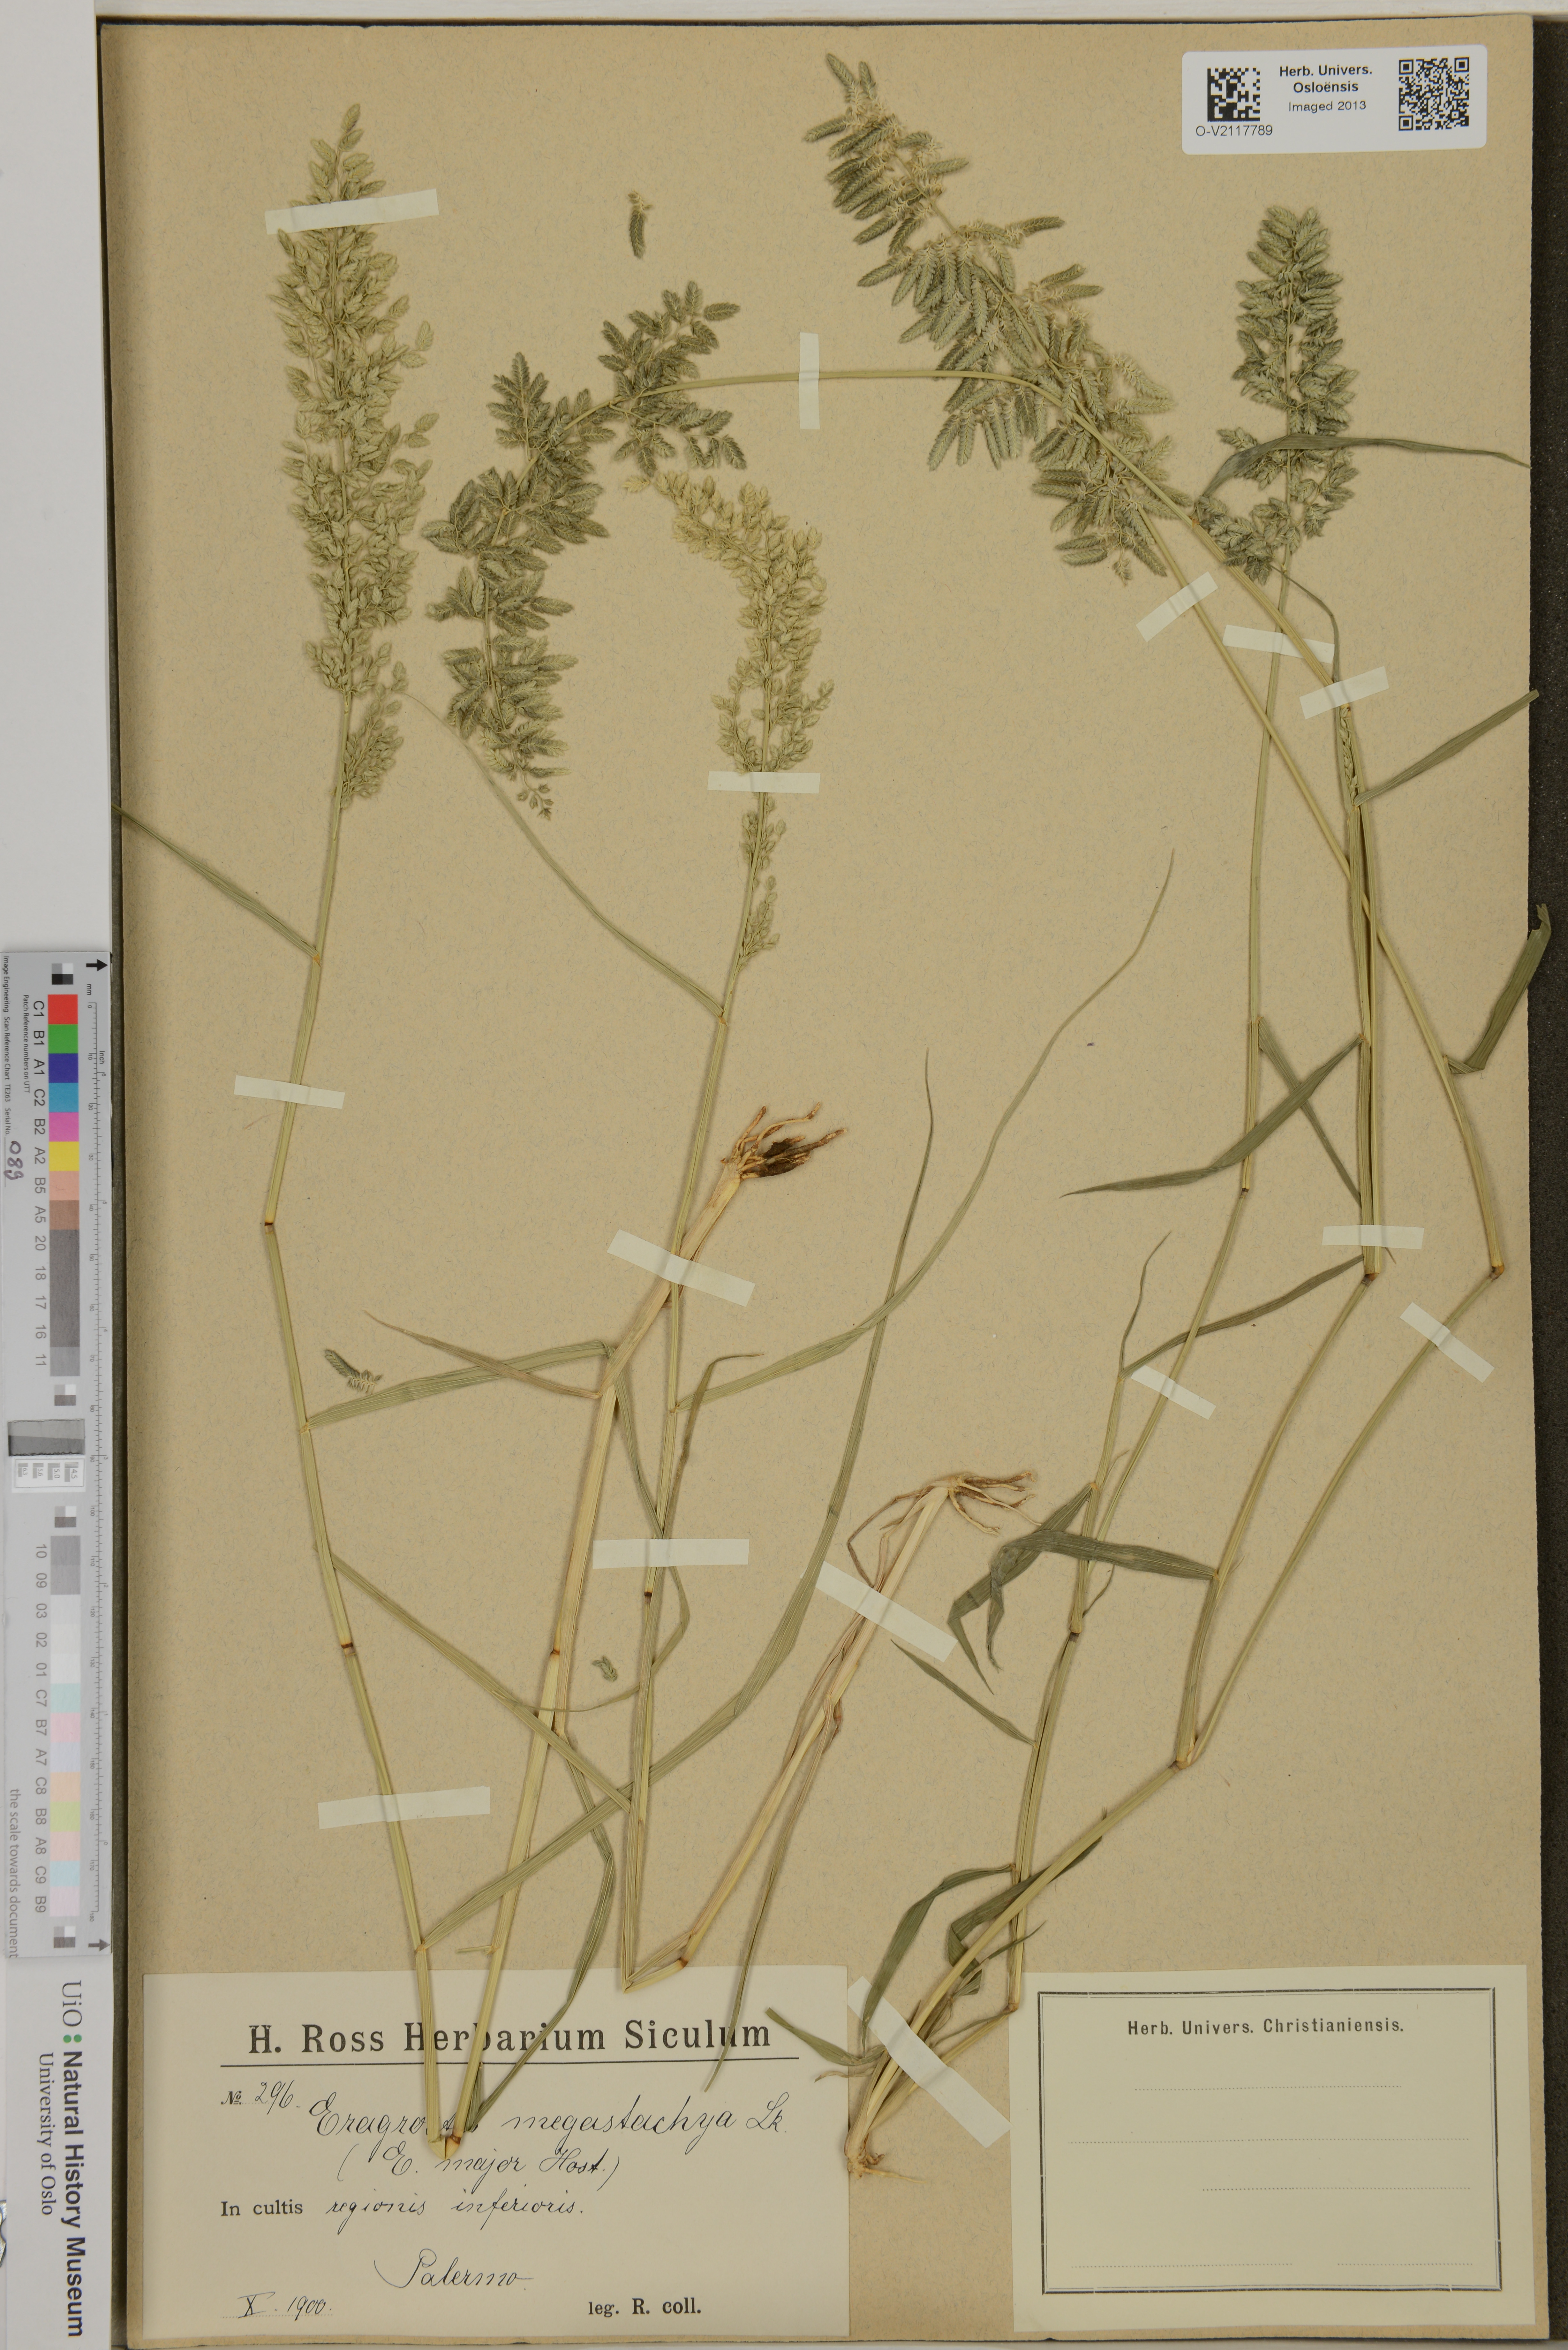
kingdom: Plantae
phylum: Tracheophyta
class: Liliopsida
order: Poales
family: Poaceae
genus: Eragrostis
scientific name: Eragrostis cilianensis
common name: Stinkgrass
